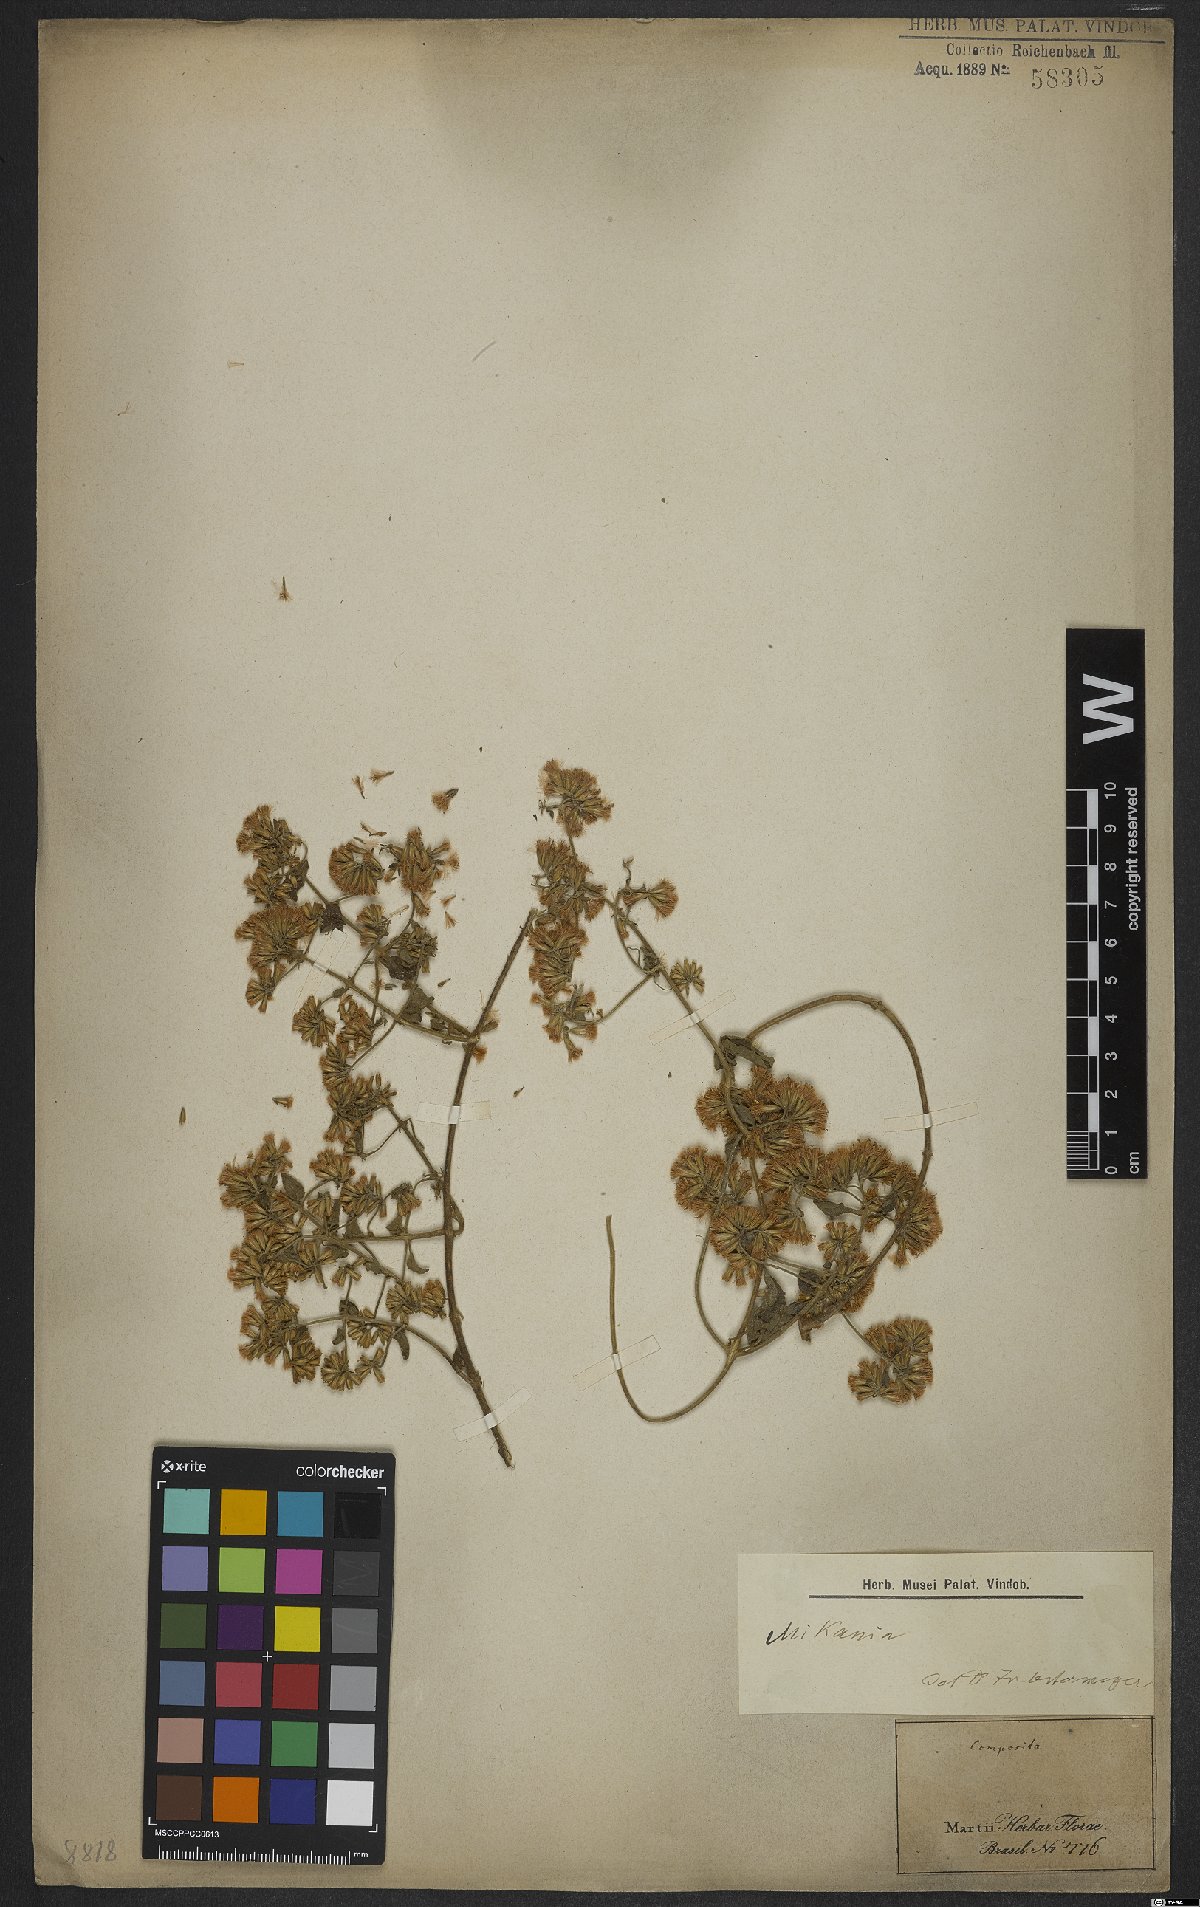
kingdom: Plantae
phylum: Tracheophyta
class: Magnoliopsida
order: Asterales
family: Asteraceae
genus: Mikania
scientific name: Mikania
